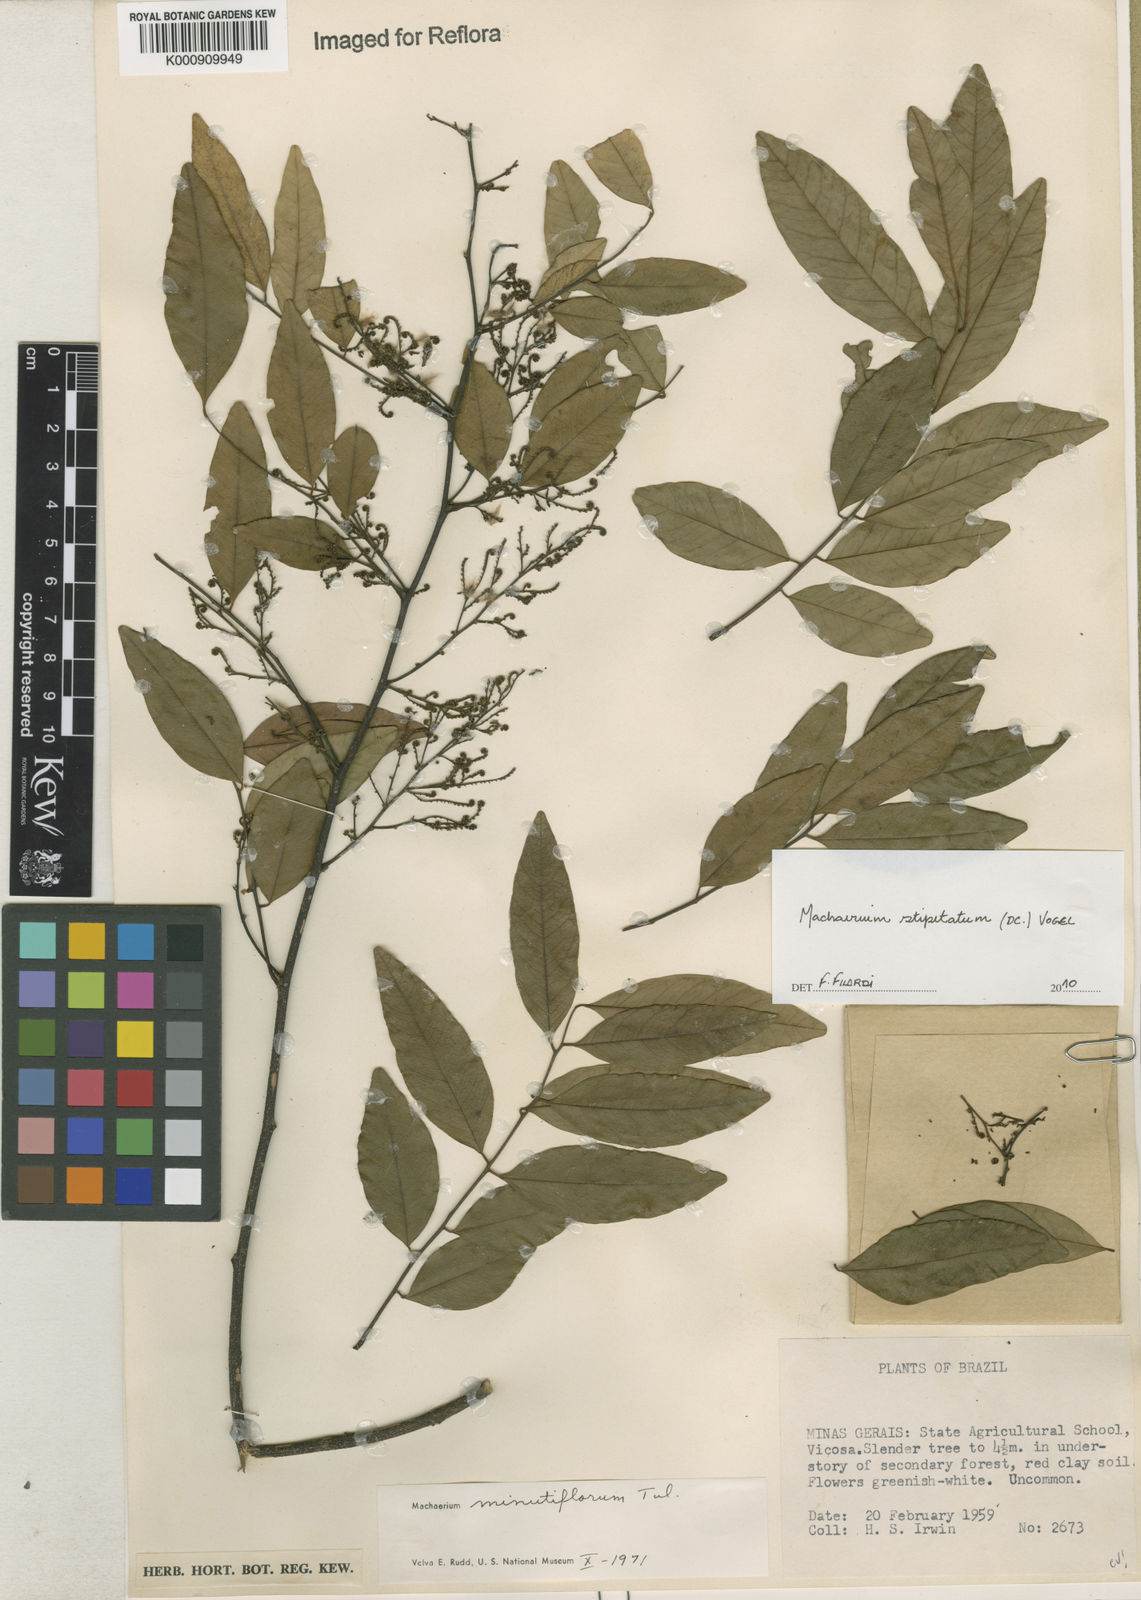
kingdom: Plantae
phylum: Tracheophyta
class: Magnoliopsida
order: Fabales
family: Fabaceae
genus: Machaerium
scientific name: Machaerium stipitatum
